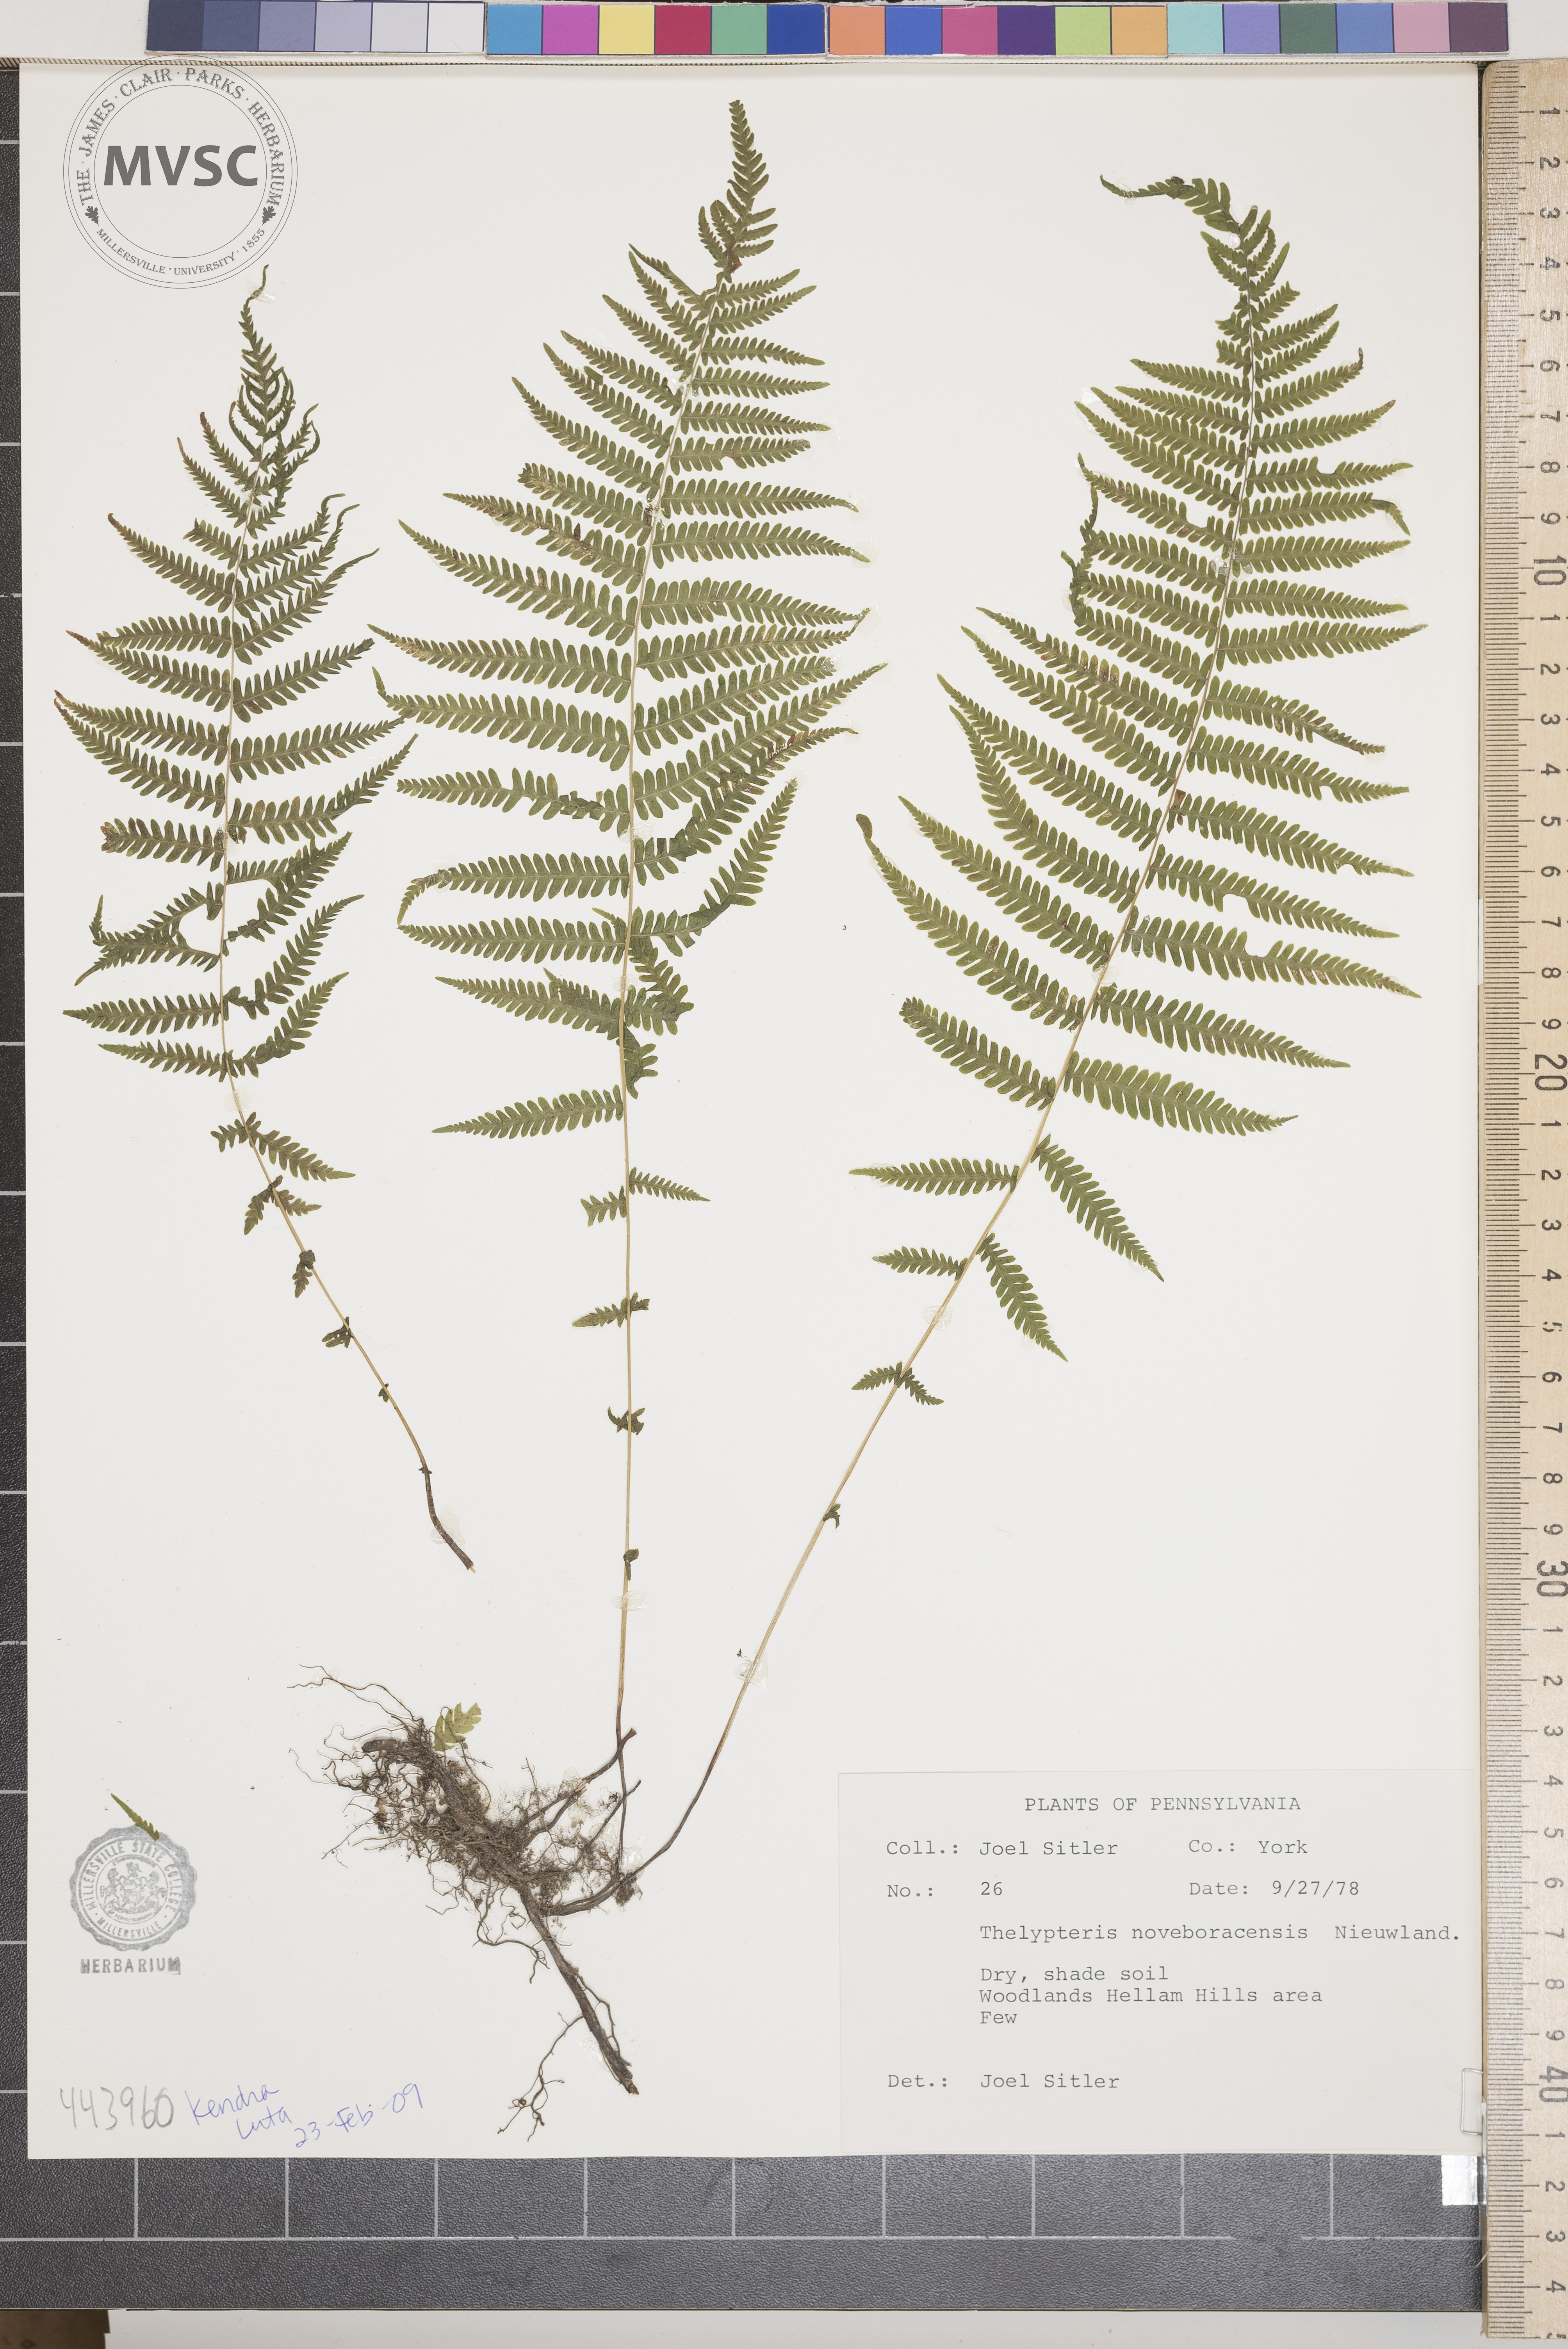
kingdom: Plantae
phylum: Tracheophyta
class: Polypodiopsida
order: Polypodiales
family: Thelypteridaceae
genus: Amauropelta
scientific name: Amauropelta noveboracensis
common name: New york fern
